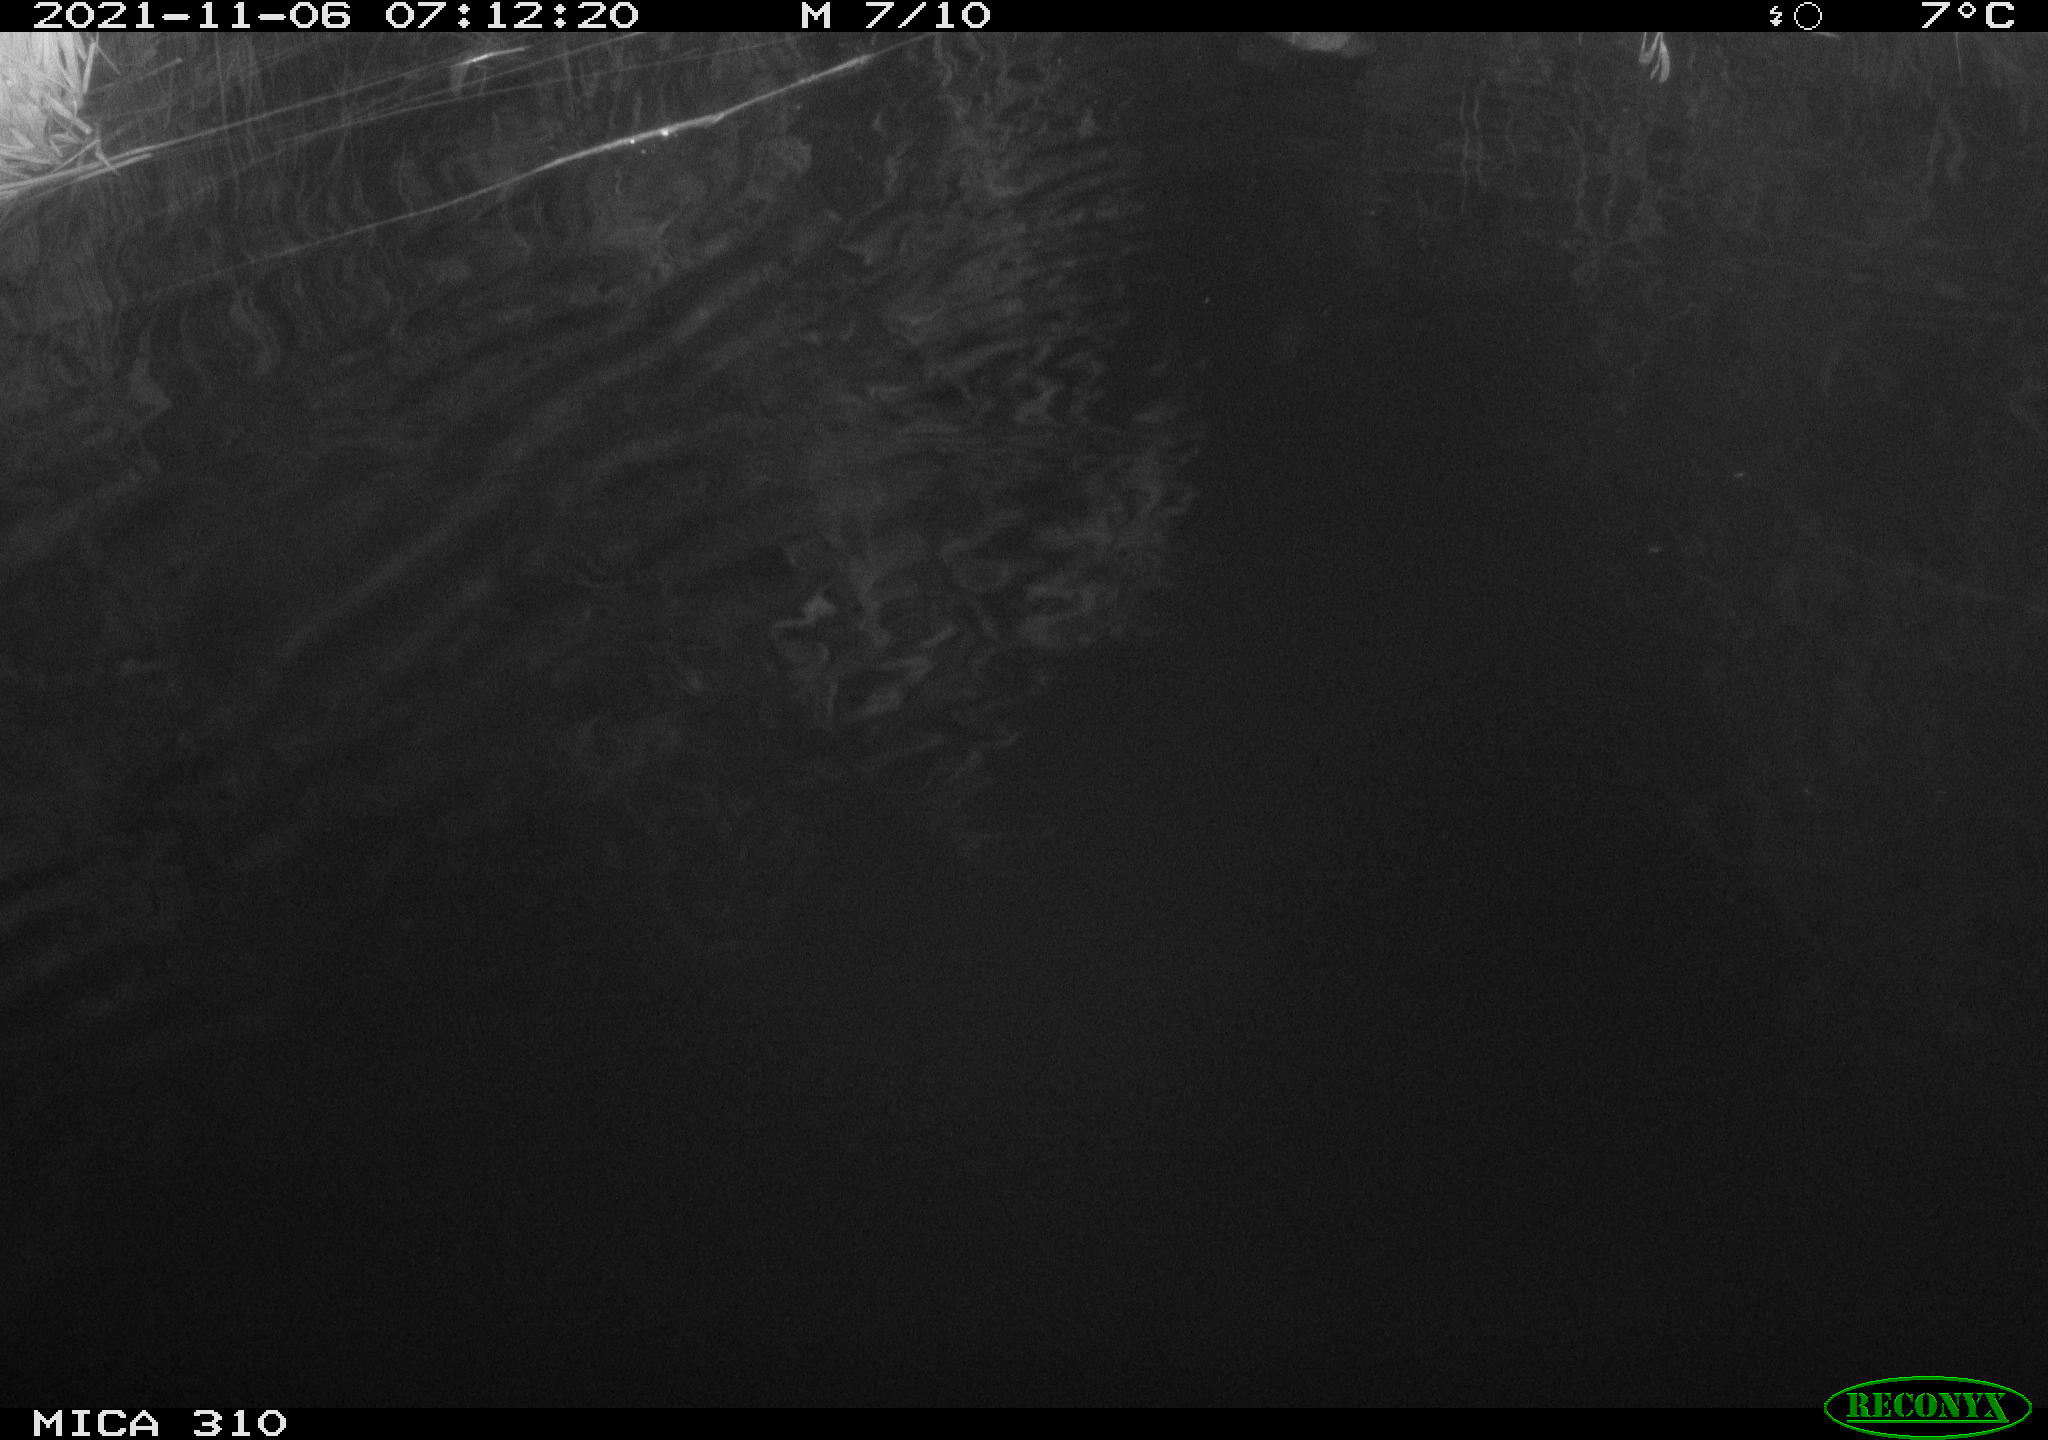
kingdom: Animalia
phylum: Chordata
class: Aves
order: Gruiformes
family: Rallidae
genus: Gallinula
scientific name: Gallinula chloropus
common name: Common moorhen
